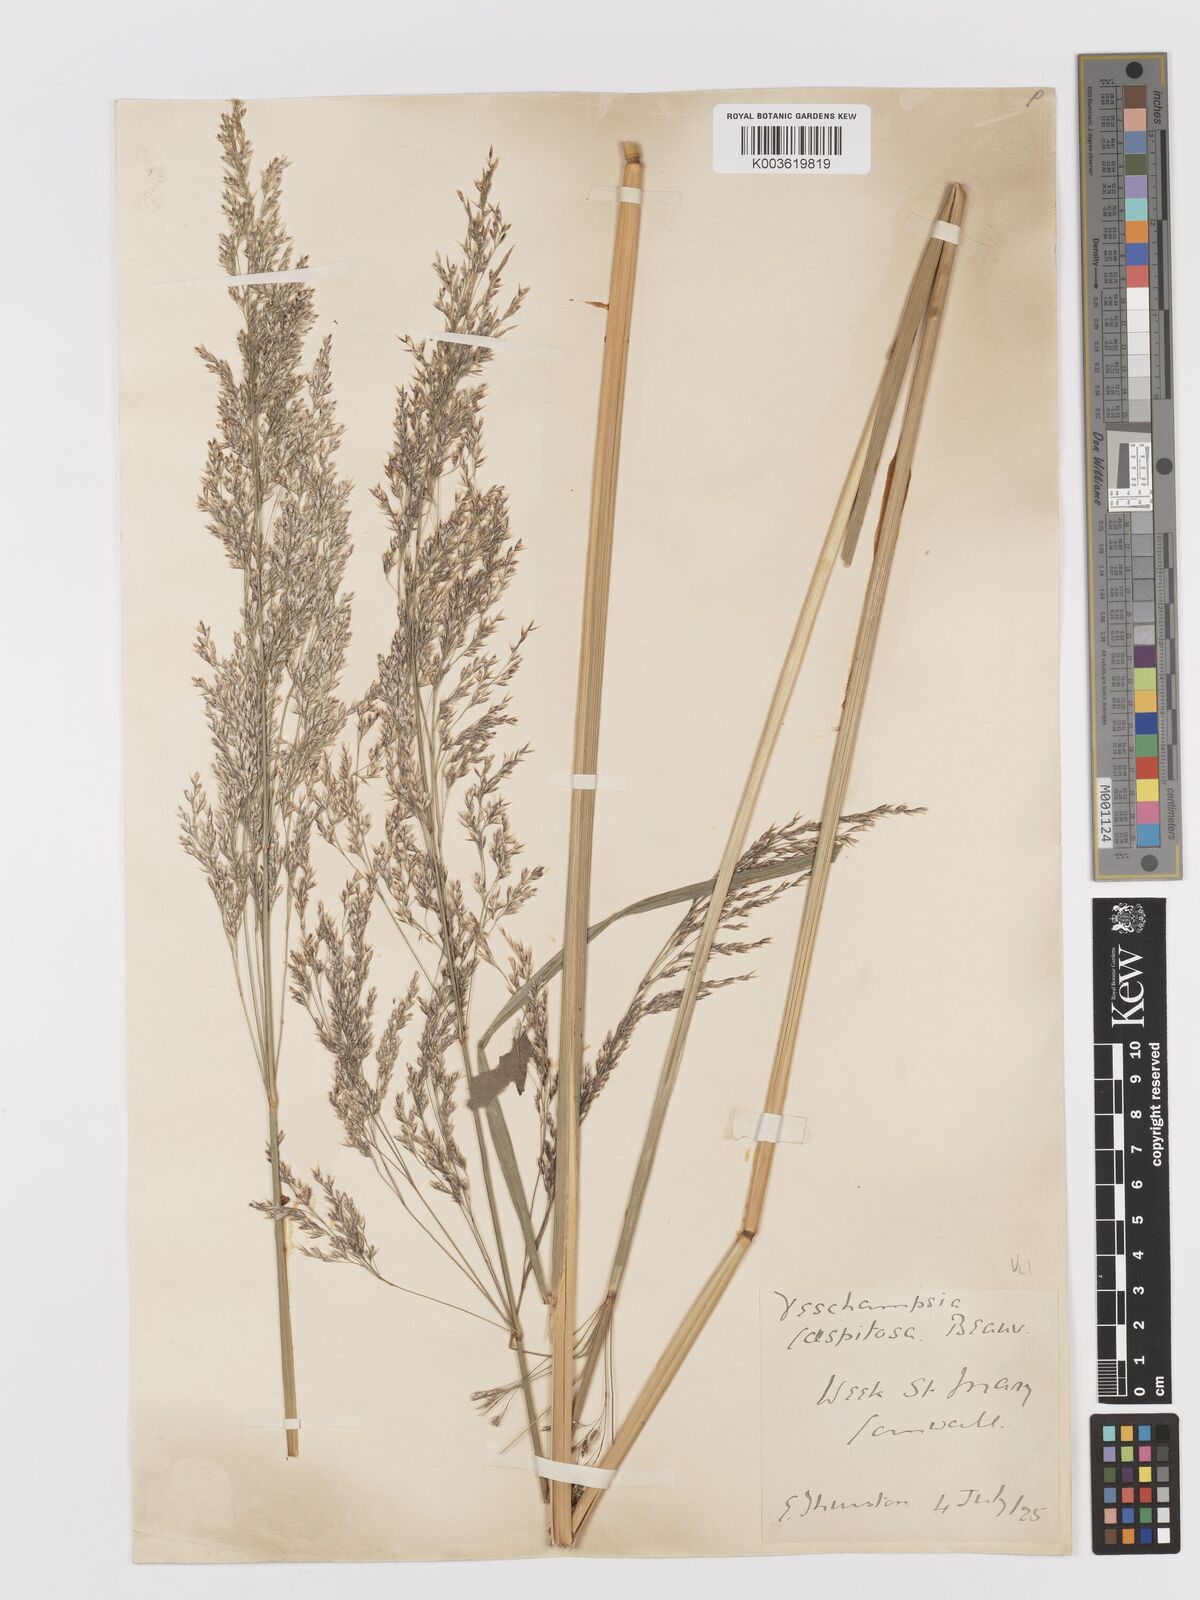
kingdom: Plantae
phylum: Tracheophyta
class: Liliopsida
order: Poales
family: Poaceae
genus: Deschampsia
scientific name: Deschampsia cespitosa
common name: Tufted hair-grass
